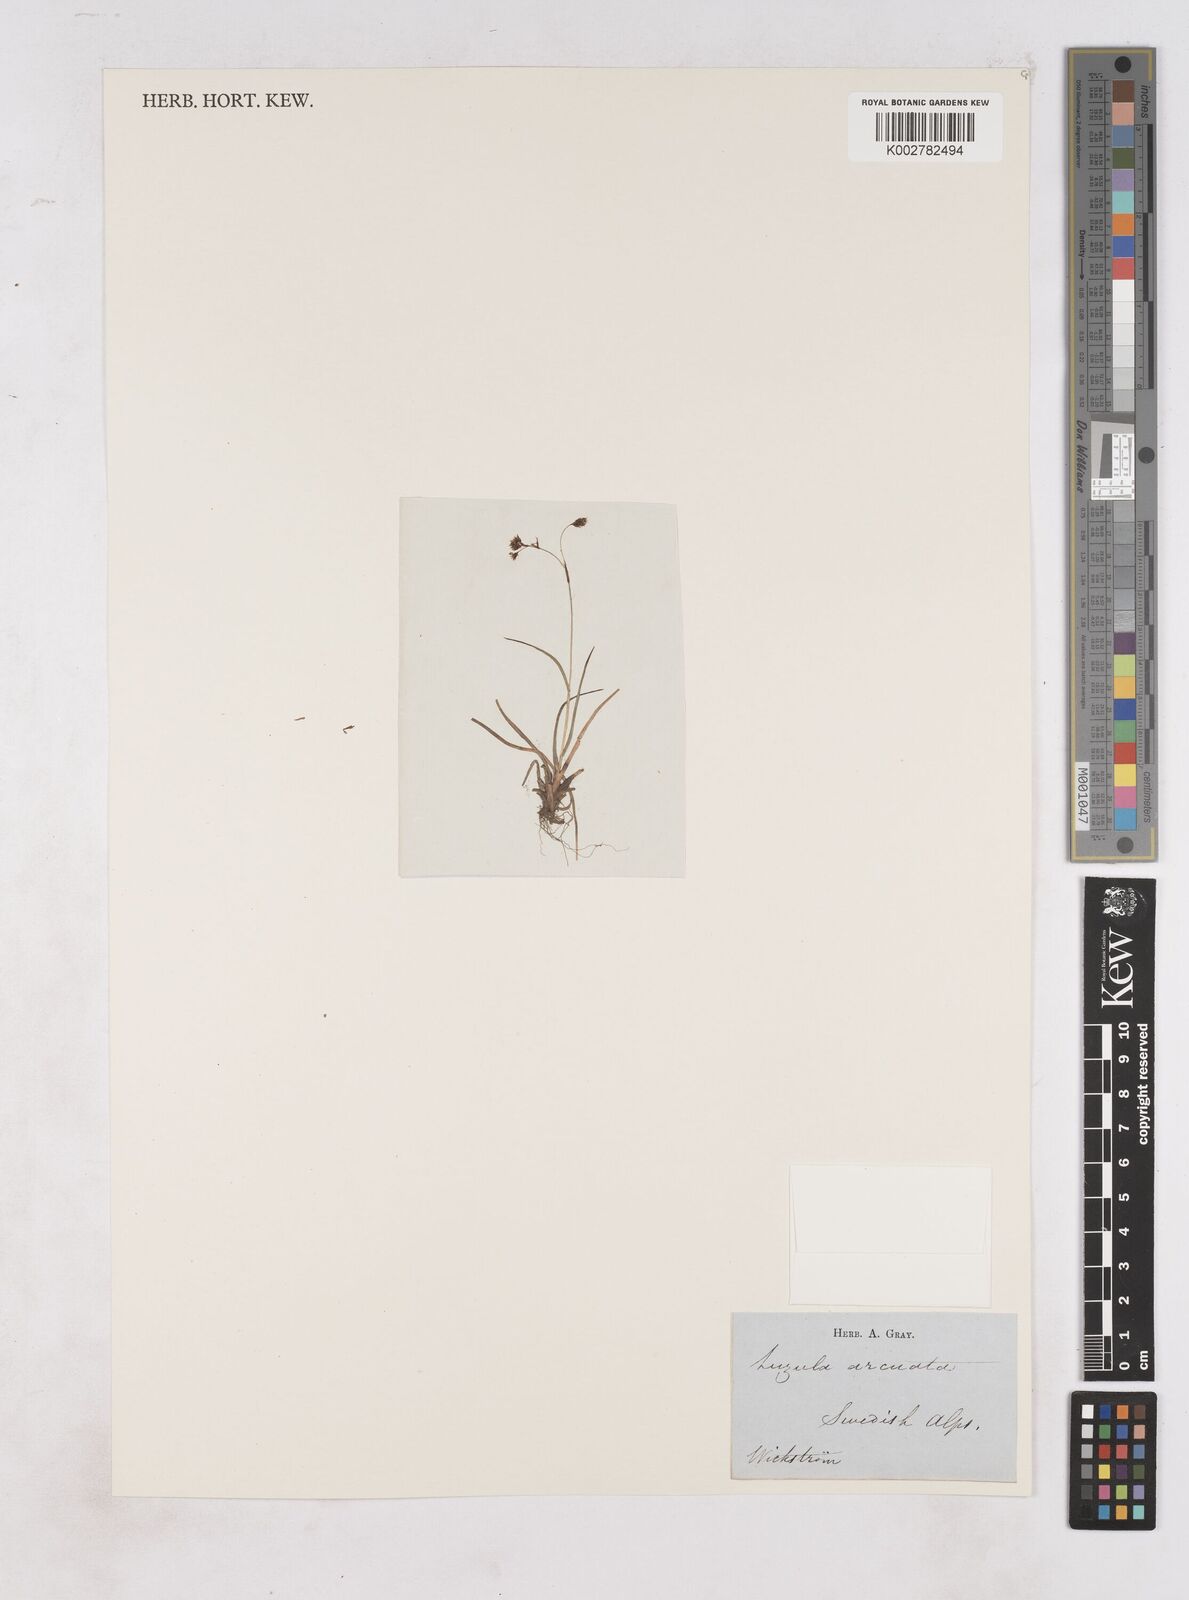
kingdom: Plantae
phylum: Tracheophyta
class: Liliopsida
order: Poales
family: Juncaceae
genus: Luzula
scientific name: Luzula arcuata
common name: Curved wood-rush
